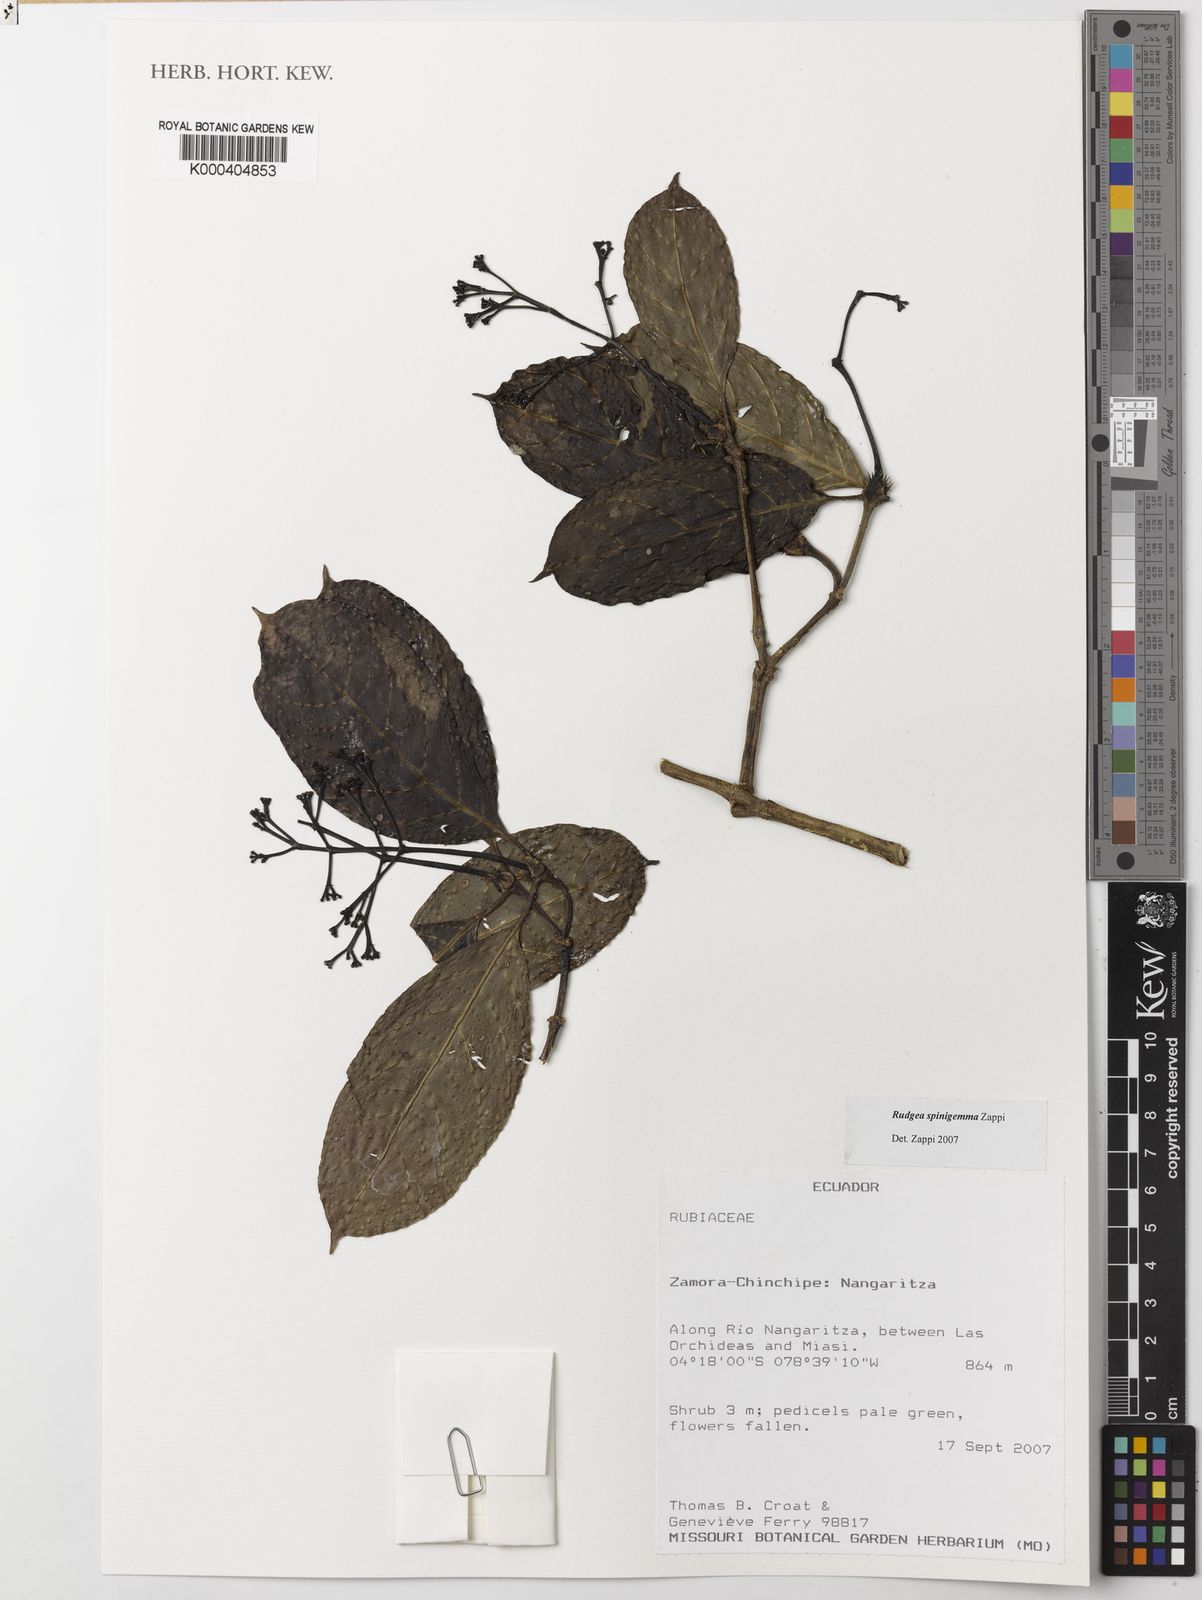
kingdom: Plantae
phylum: Tracheophyta
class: Magnoliopsida
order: Gentianales
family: Rubiaceae
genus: Rudgea
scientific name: Rudgea spinigemma
